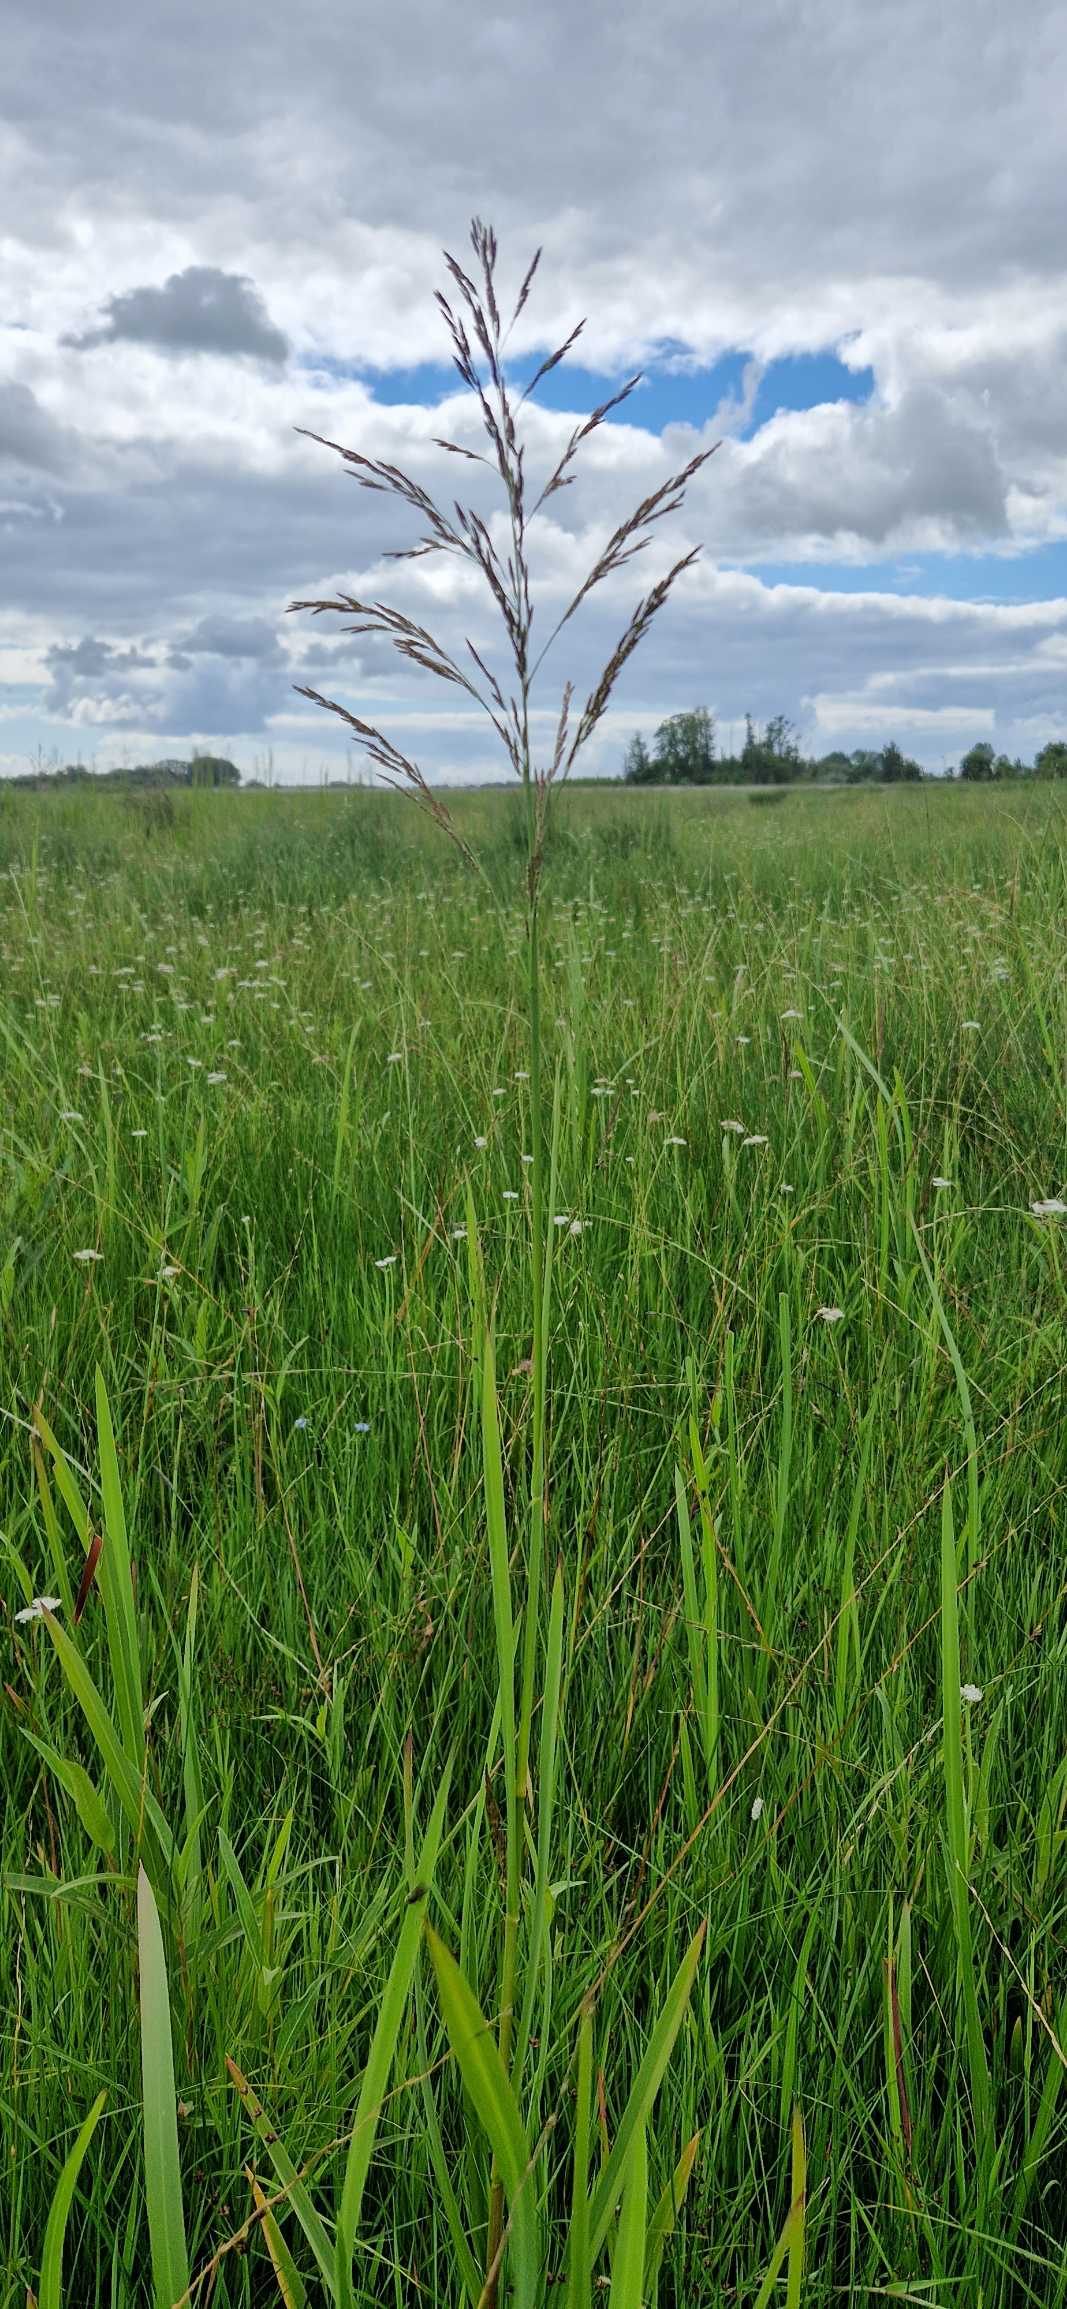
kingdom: Plantae
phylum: Tracheophyta
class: Liliopsida
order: Poales
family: Poaceae
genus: Glyceria
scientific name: Glyceria maxima
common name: Høj sødgræs
